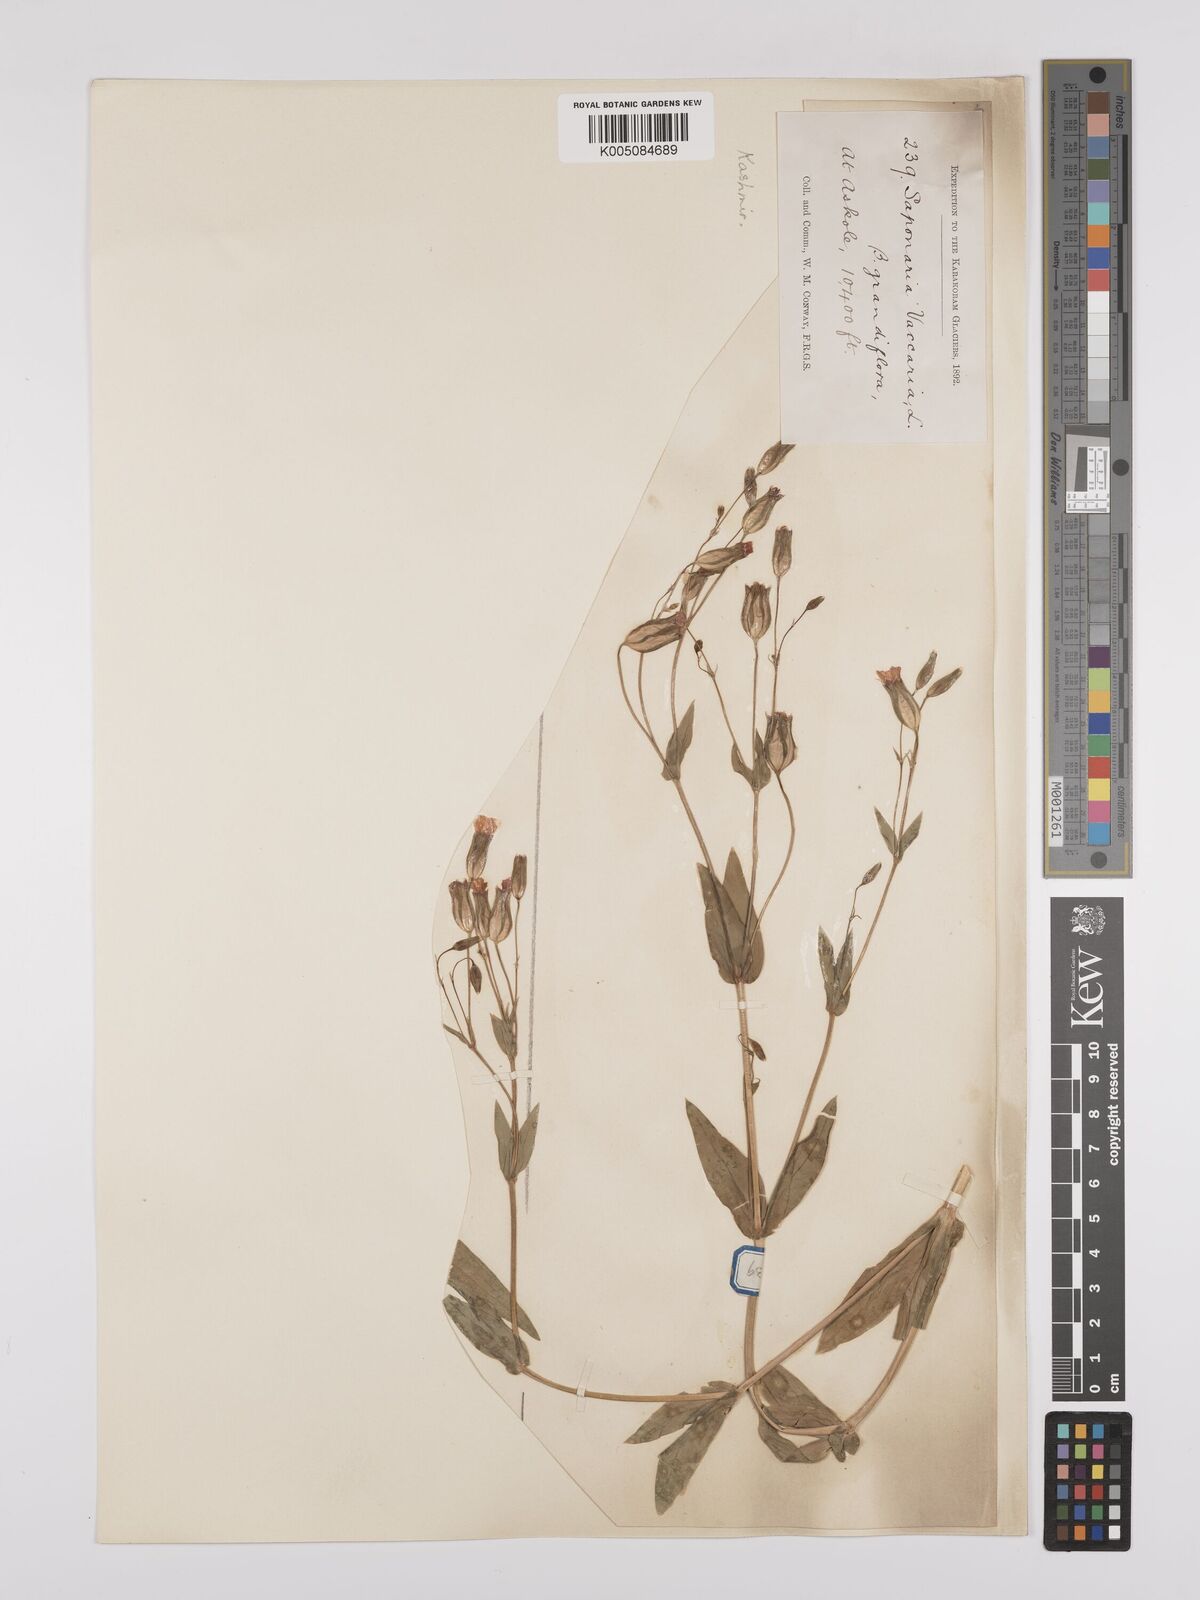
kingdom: Plantae
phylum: Tracheophyta
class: Magnoliopsida
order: Caryophyllales
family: Caryophyllaceae
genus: Gypsophila
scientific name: Gypsophila vaccaria
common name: Cow soapwort
